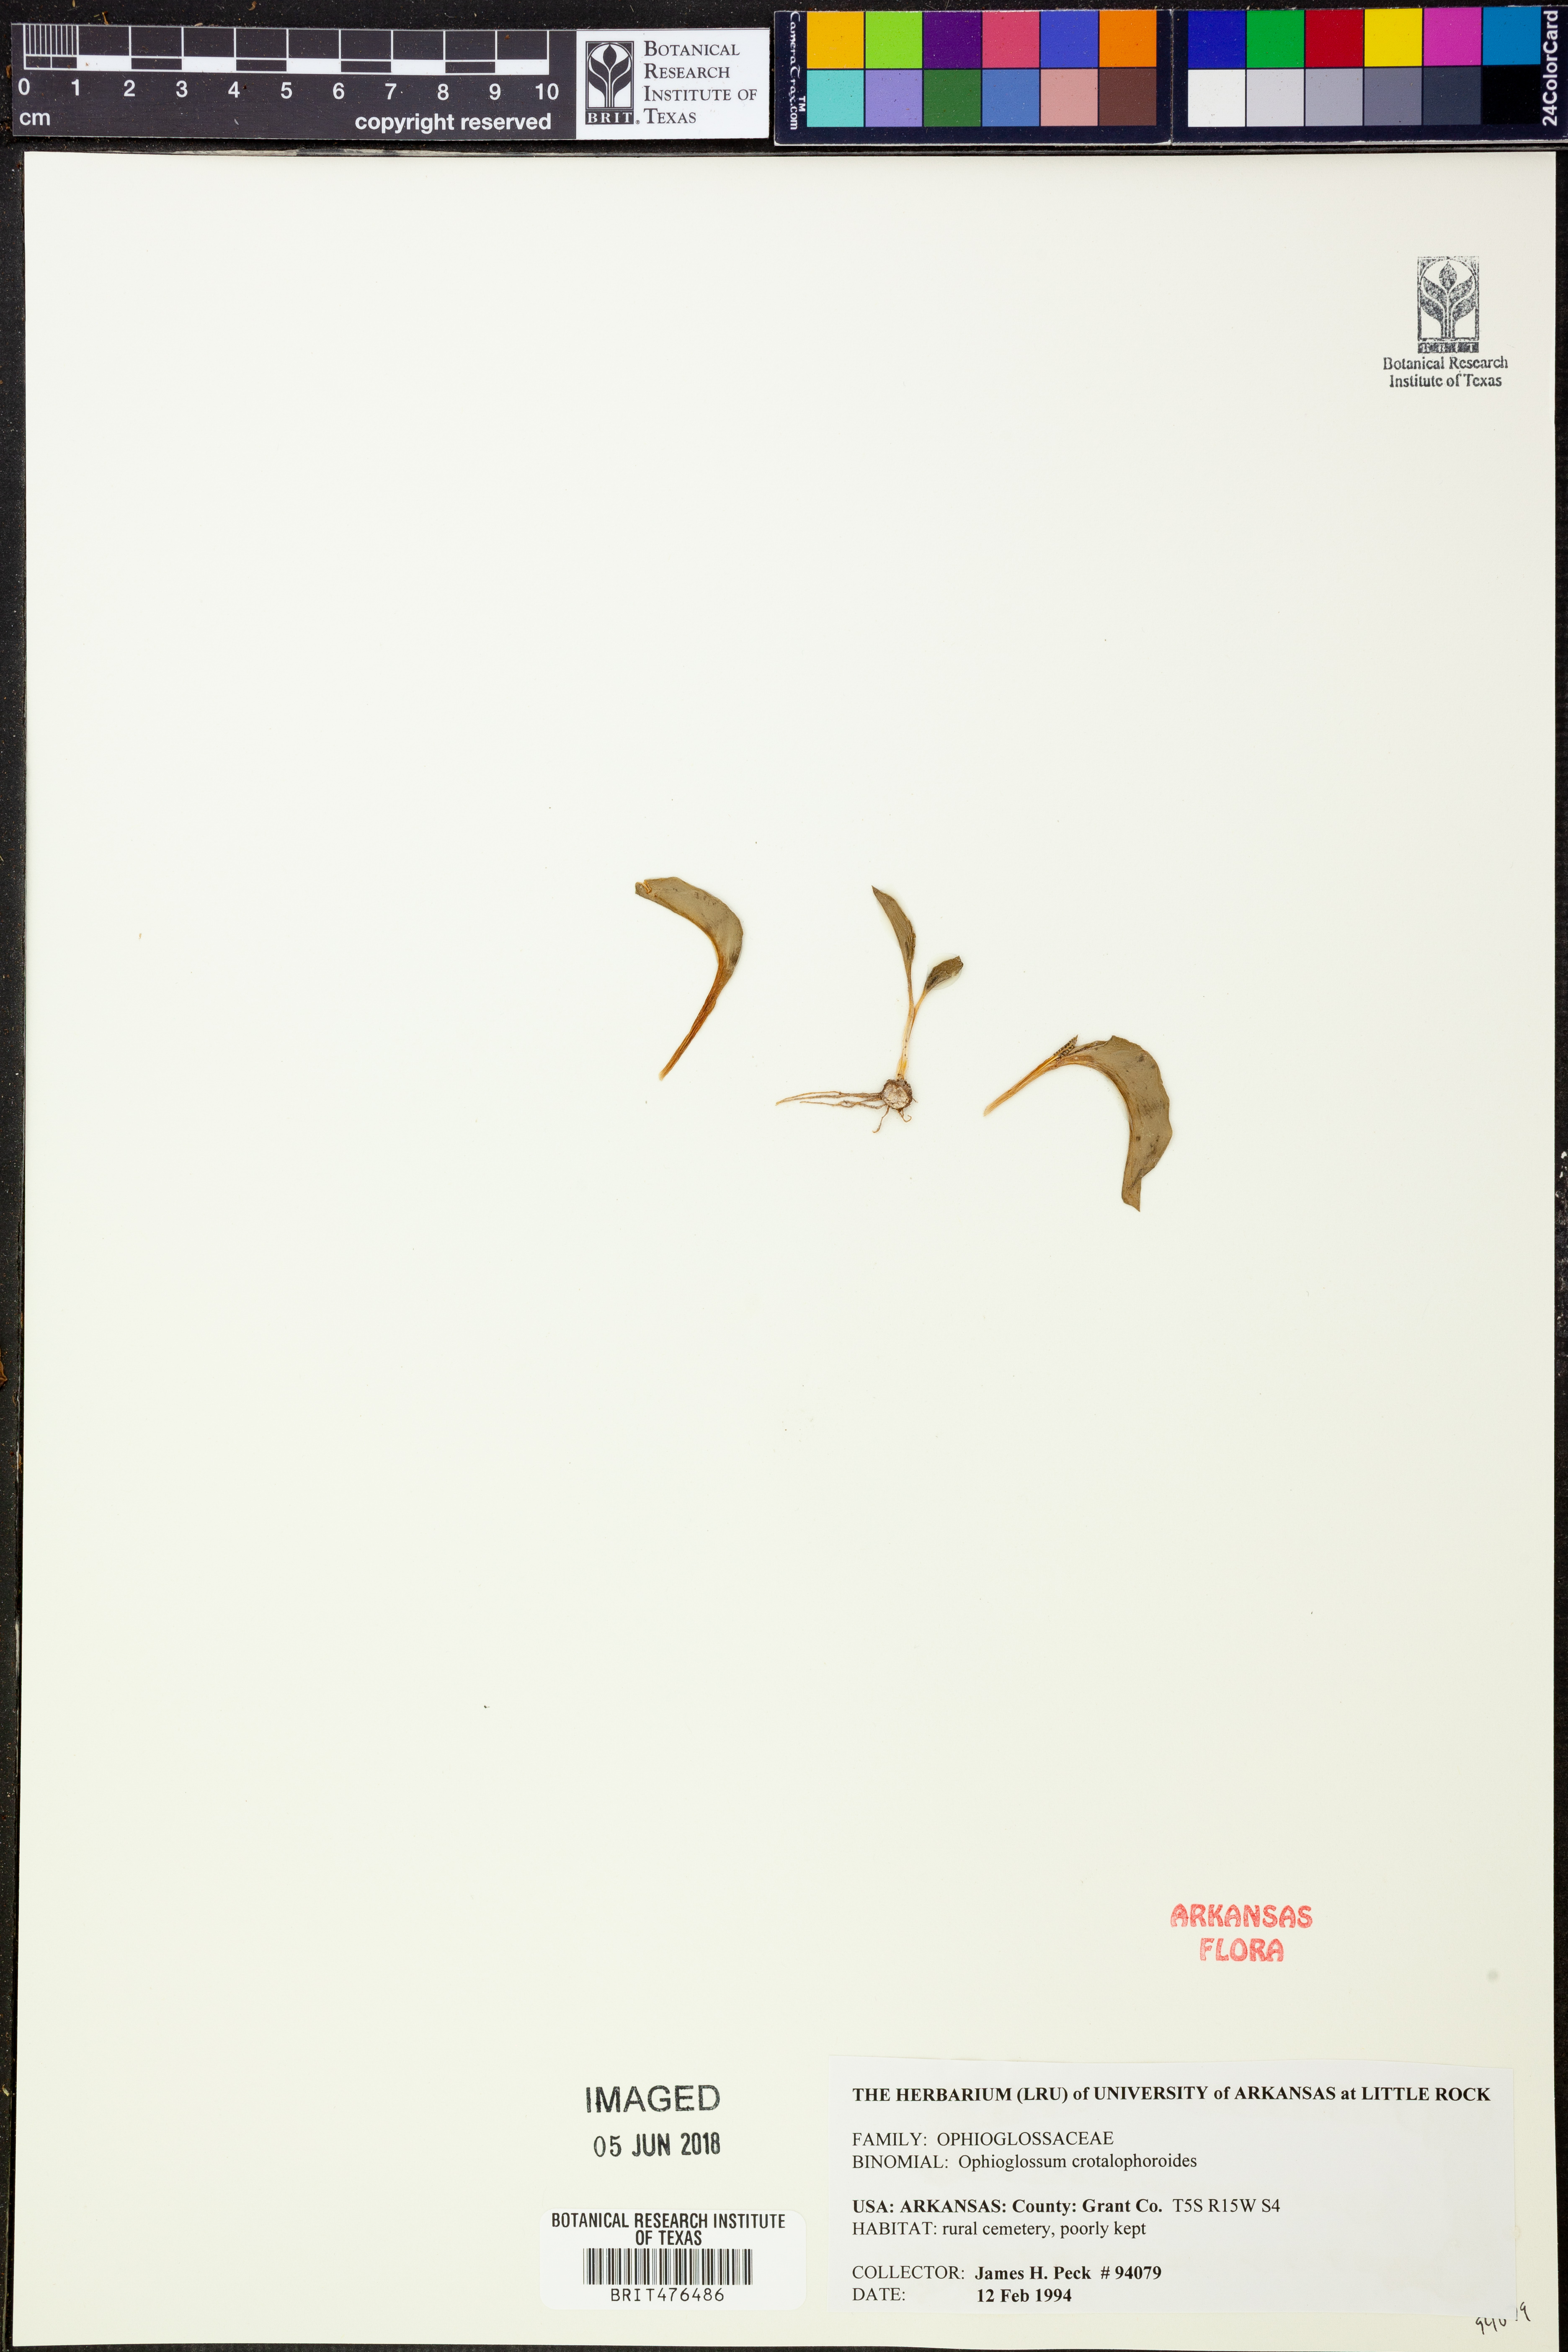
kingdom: Plantae
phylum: Tracheophyta
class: Polypodiopsida
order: Ophioglossales
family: Ophioglossaceae
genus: Ophioglossum
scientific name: Ophioglossum crotalophoroides
